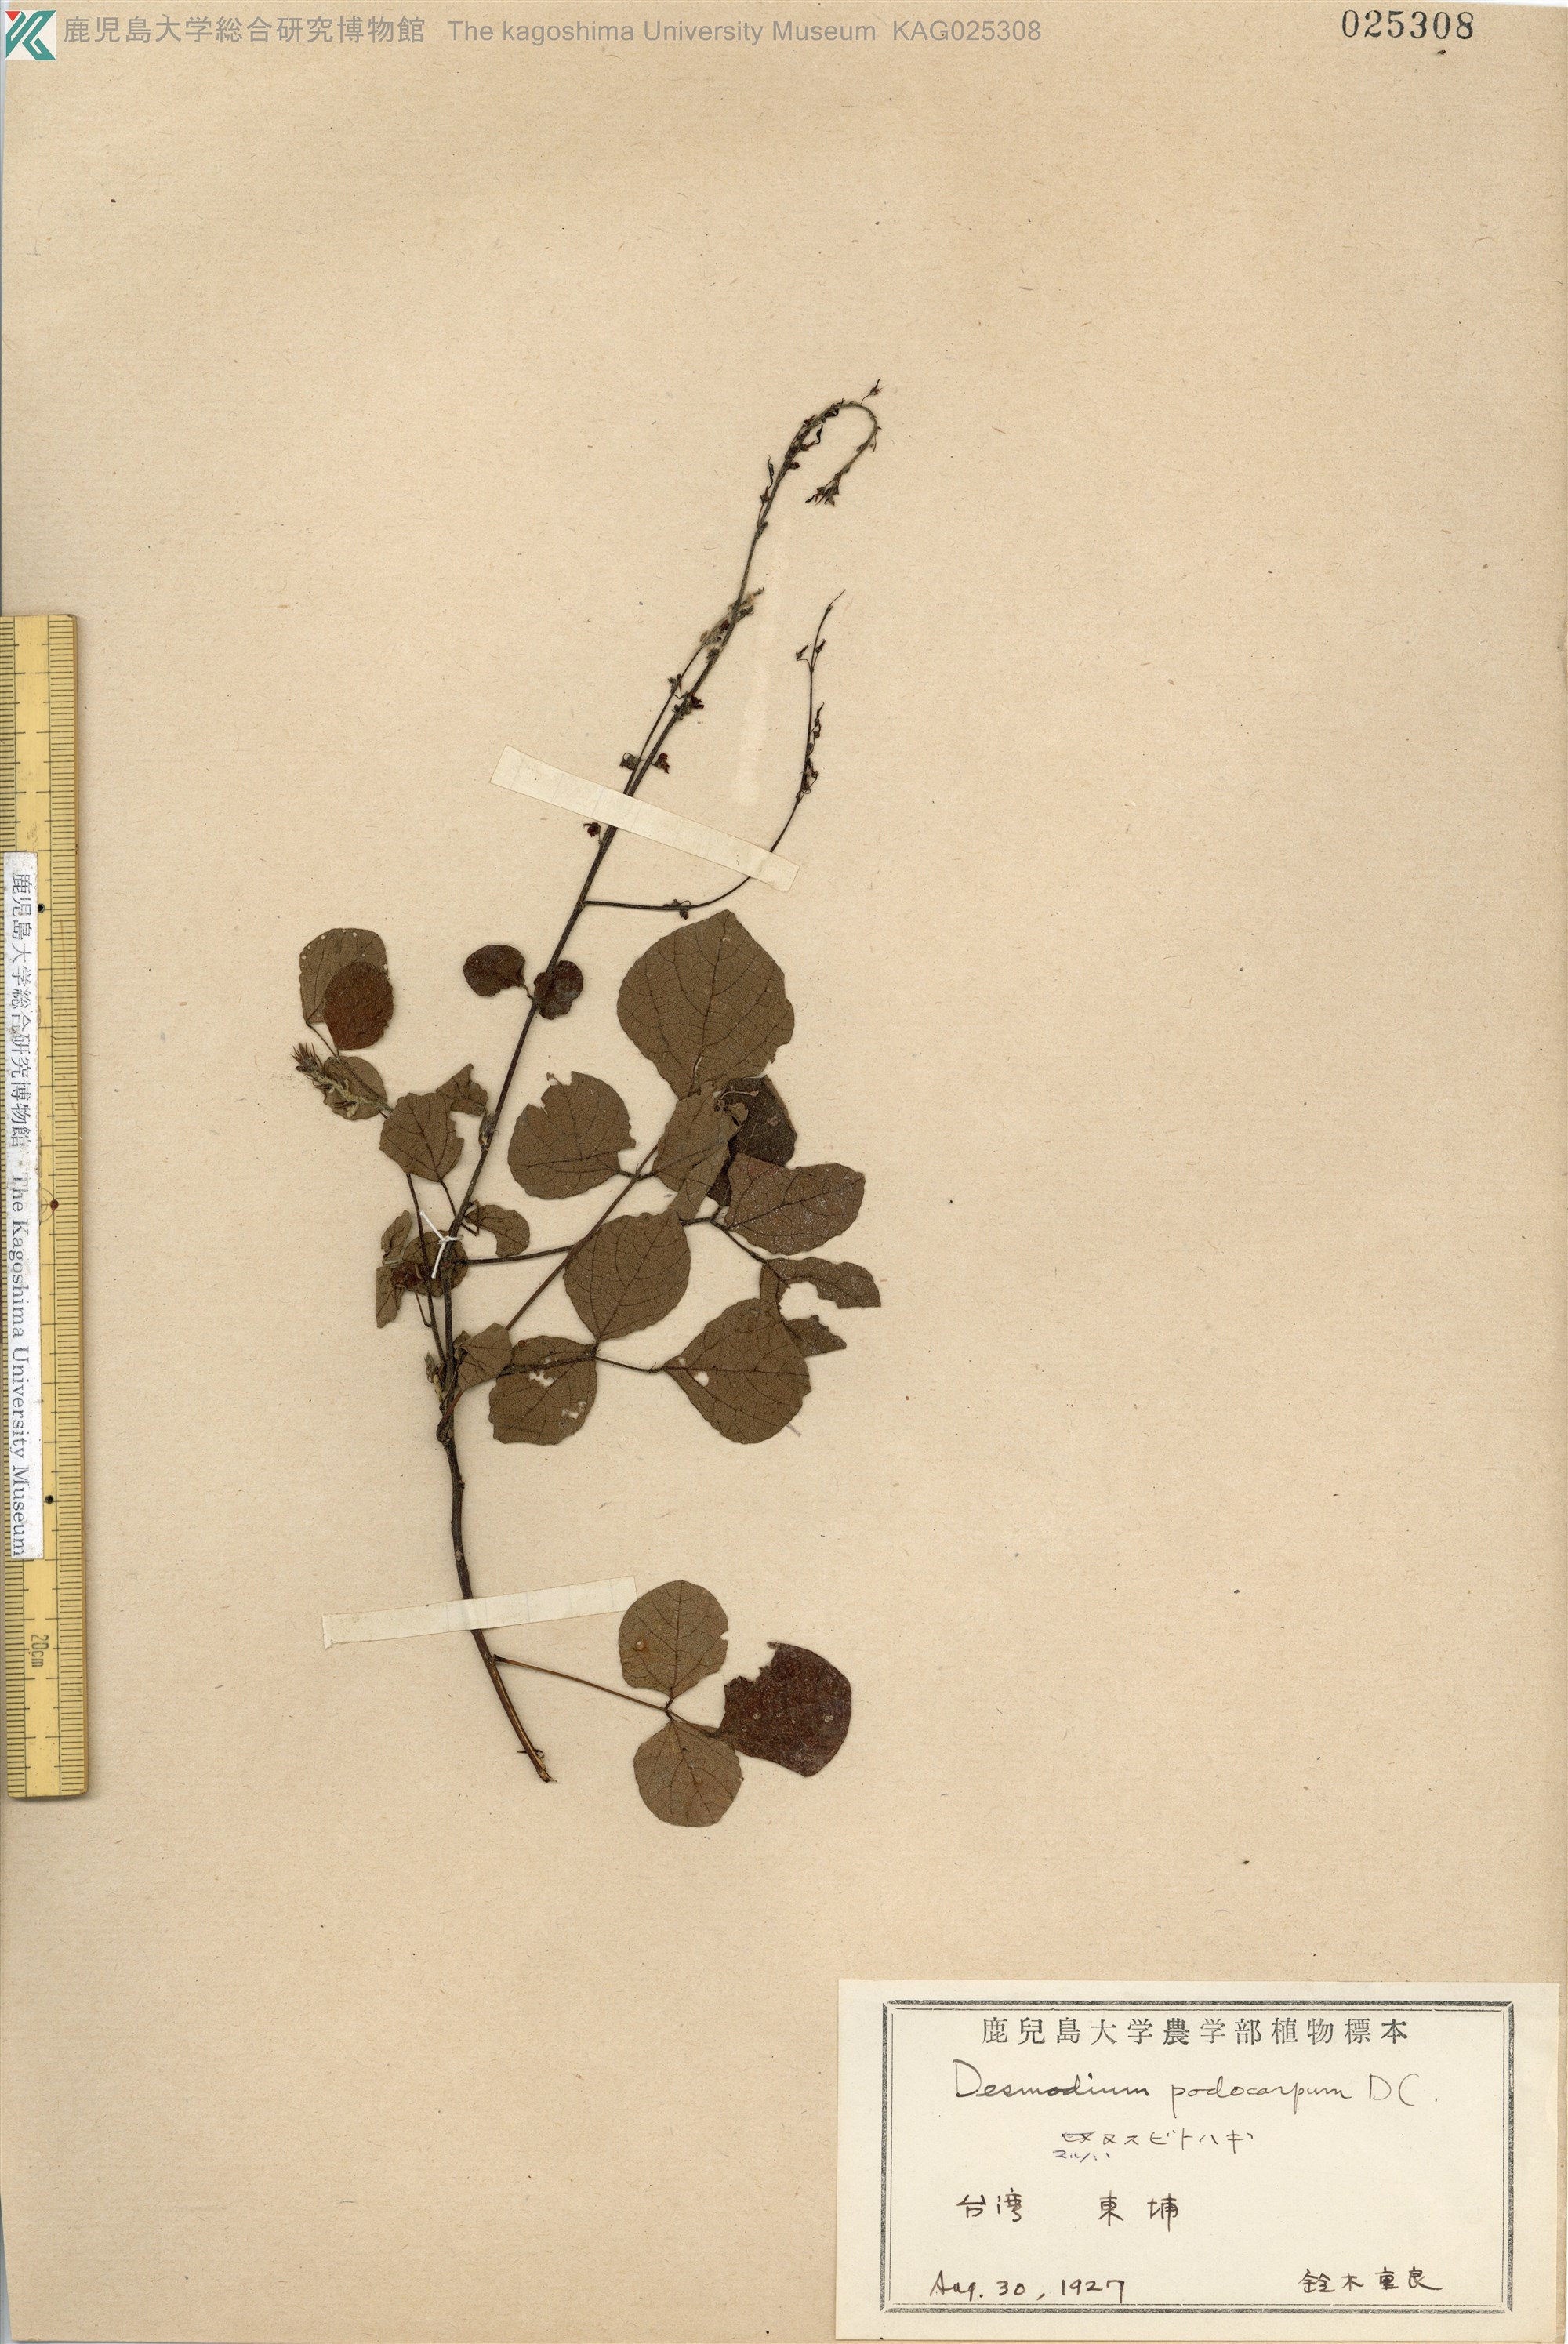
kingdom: Plantae
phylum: Tracheophyta
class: Magnoliopsida
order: Fabales
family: Fabaceae
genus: Hylodesmum
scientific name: Hylodesmum podocarpum
